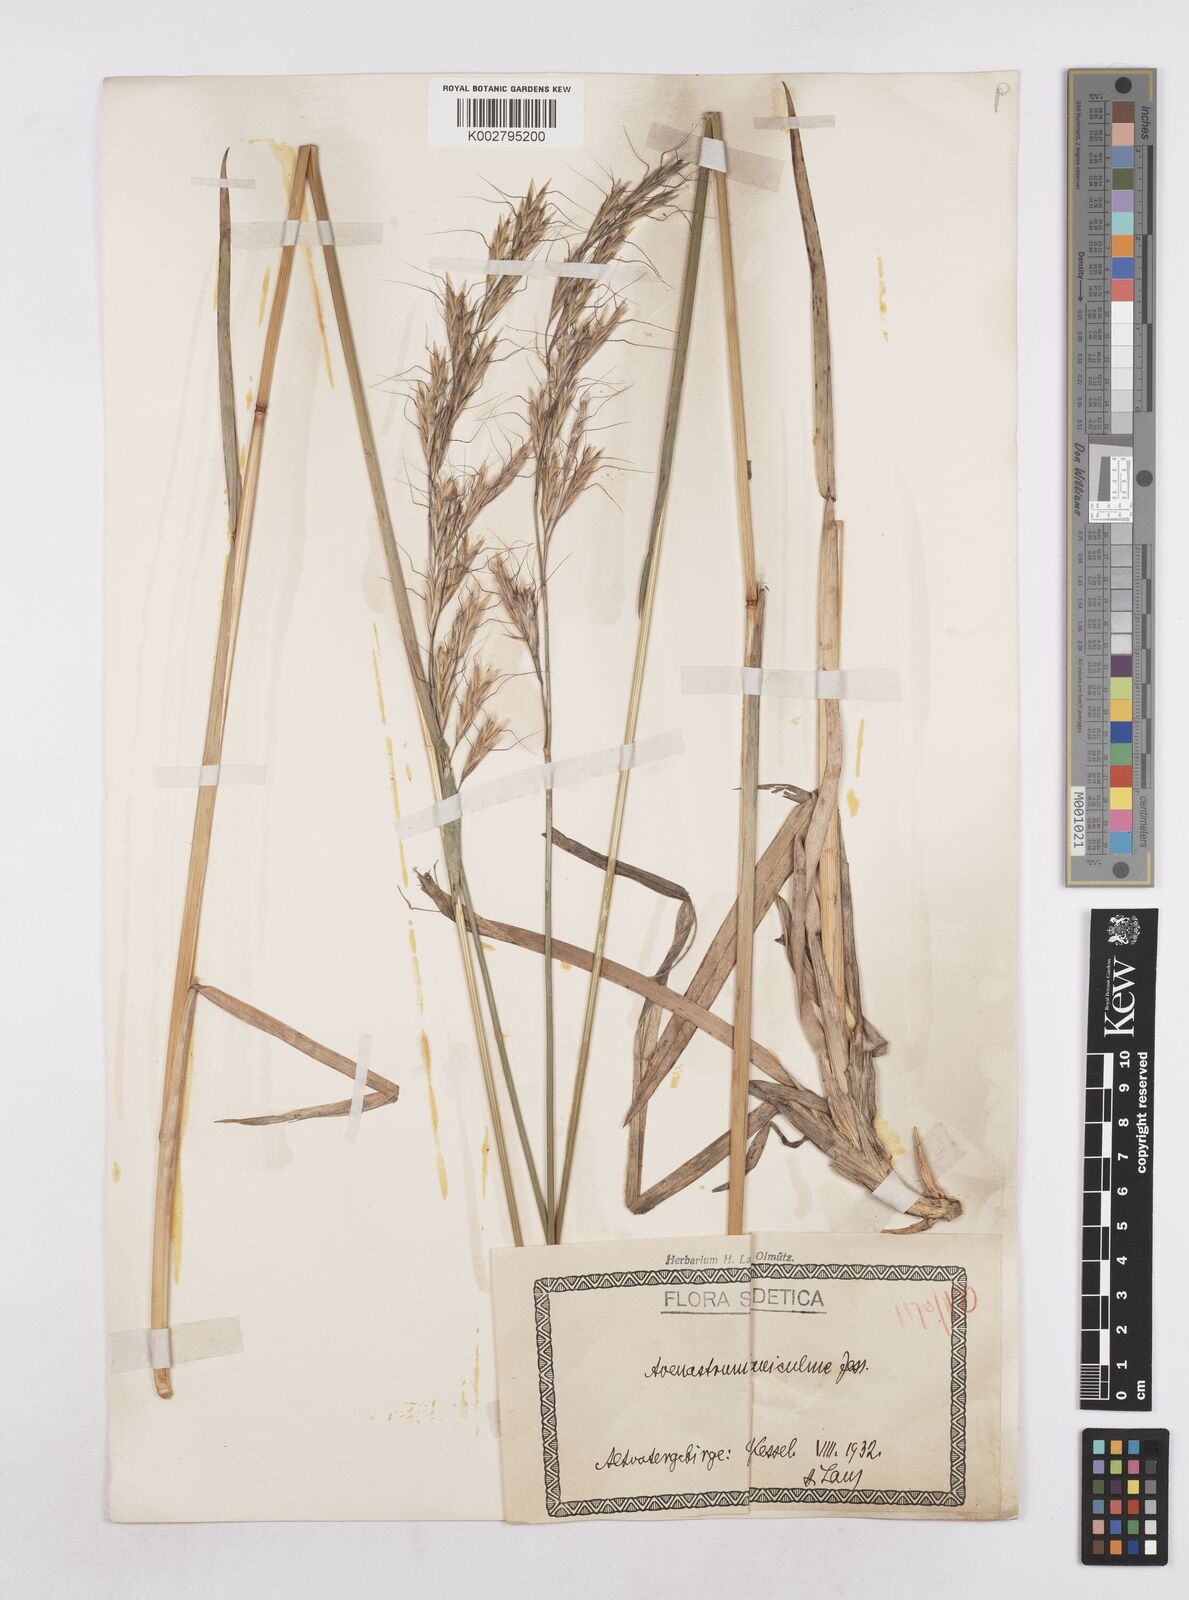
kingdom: Plantae
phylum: Tracheophyta
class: Liliopsida
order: Poales
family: Poaceae
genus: Helictochloa
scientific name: Helictochloa planiculmis
